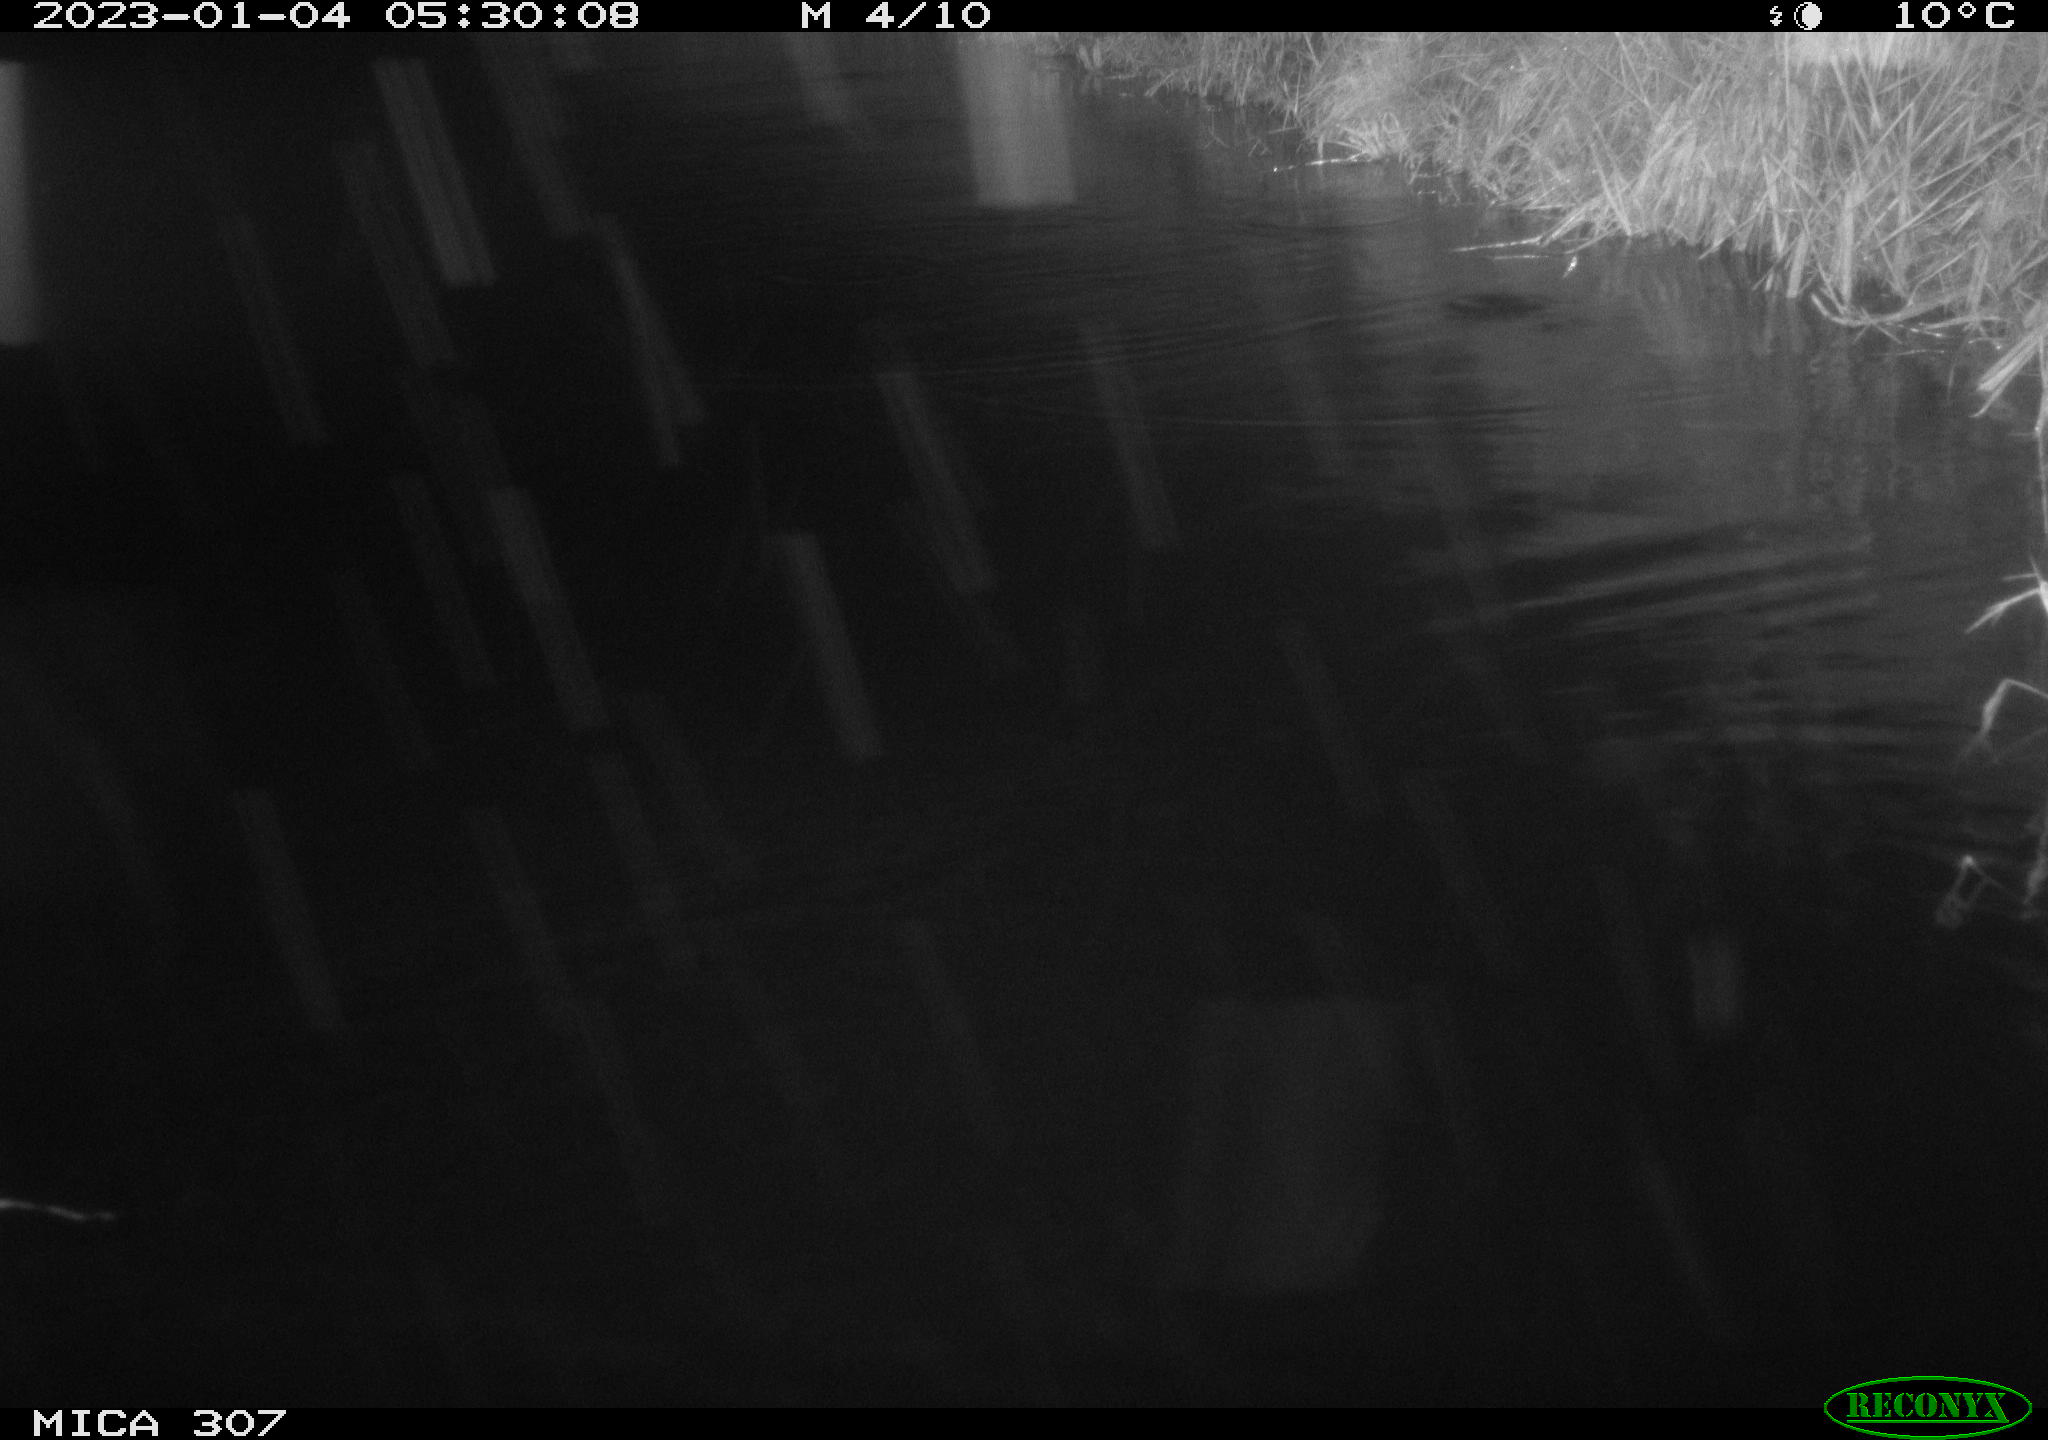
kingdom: Animalia
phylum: Chordata
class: Mammalia
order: Rodentia
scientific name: Rodentia
